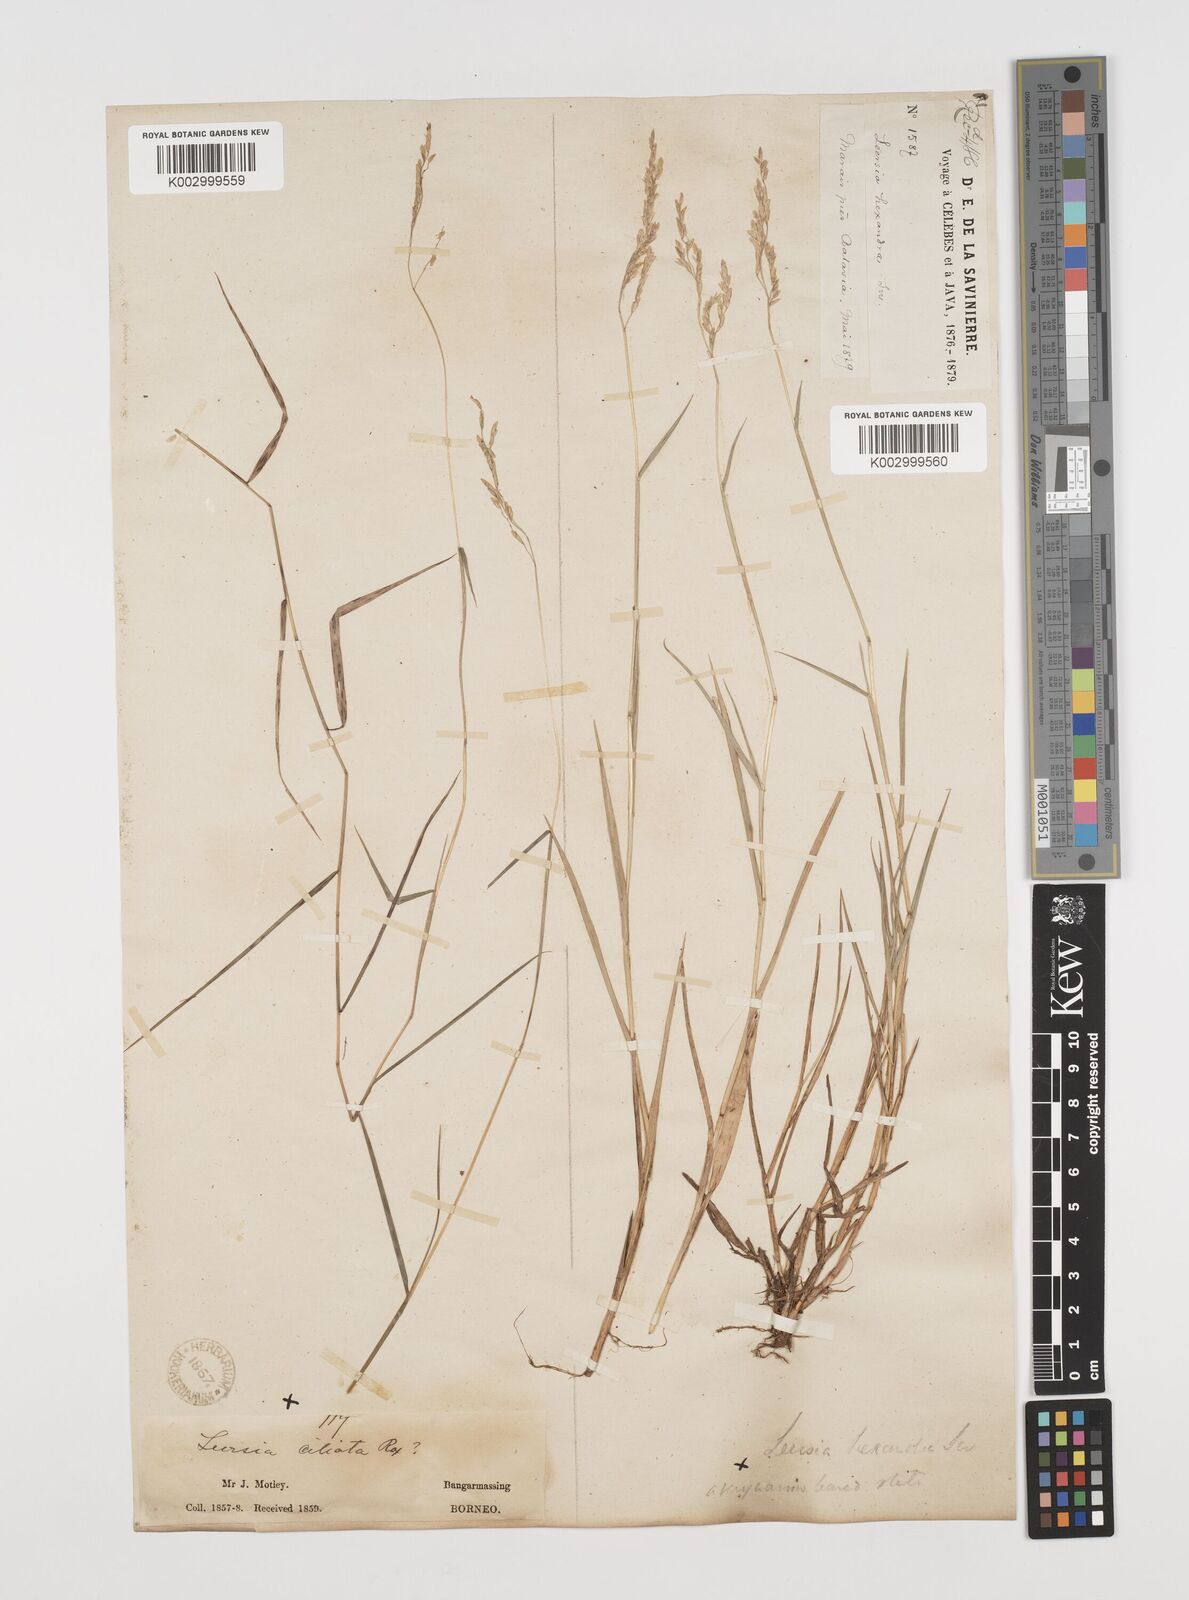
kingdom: Plantae
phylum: Tracheophyta
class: Liliopsida
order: Poales
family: Poaceae
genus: Leersia
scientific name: Leersia hexandra
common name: Southern cut grass
